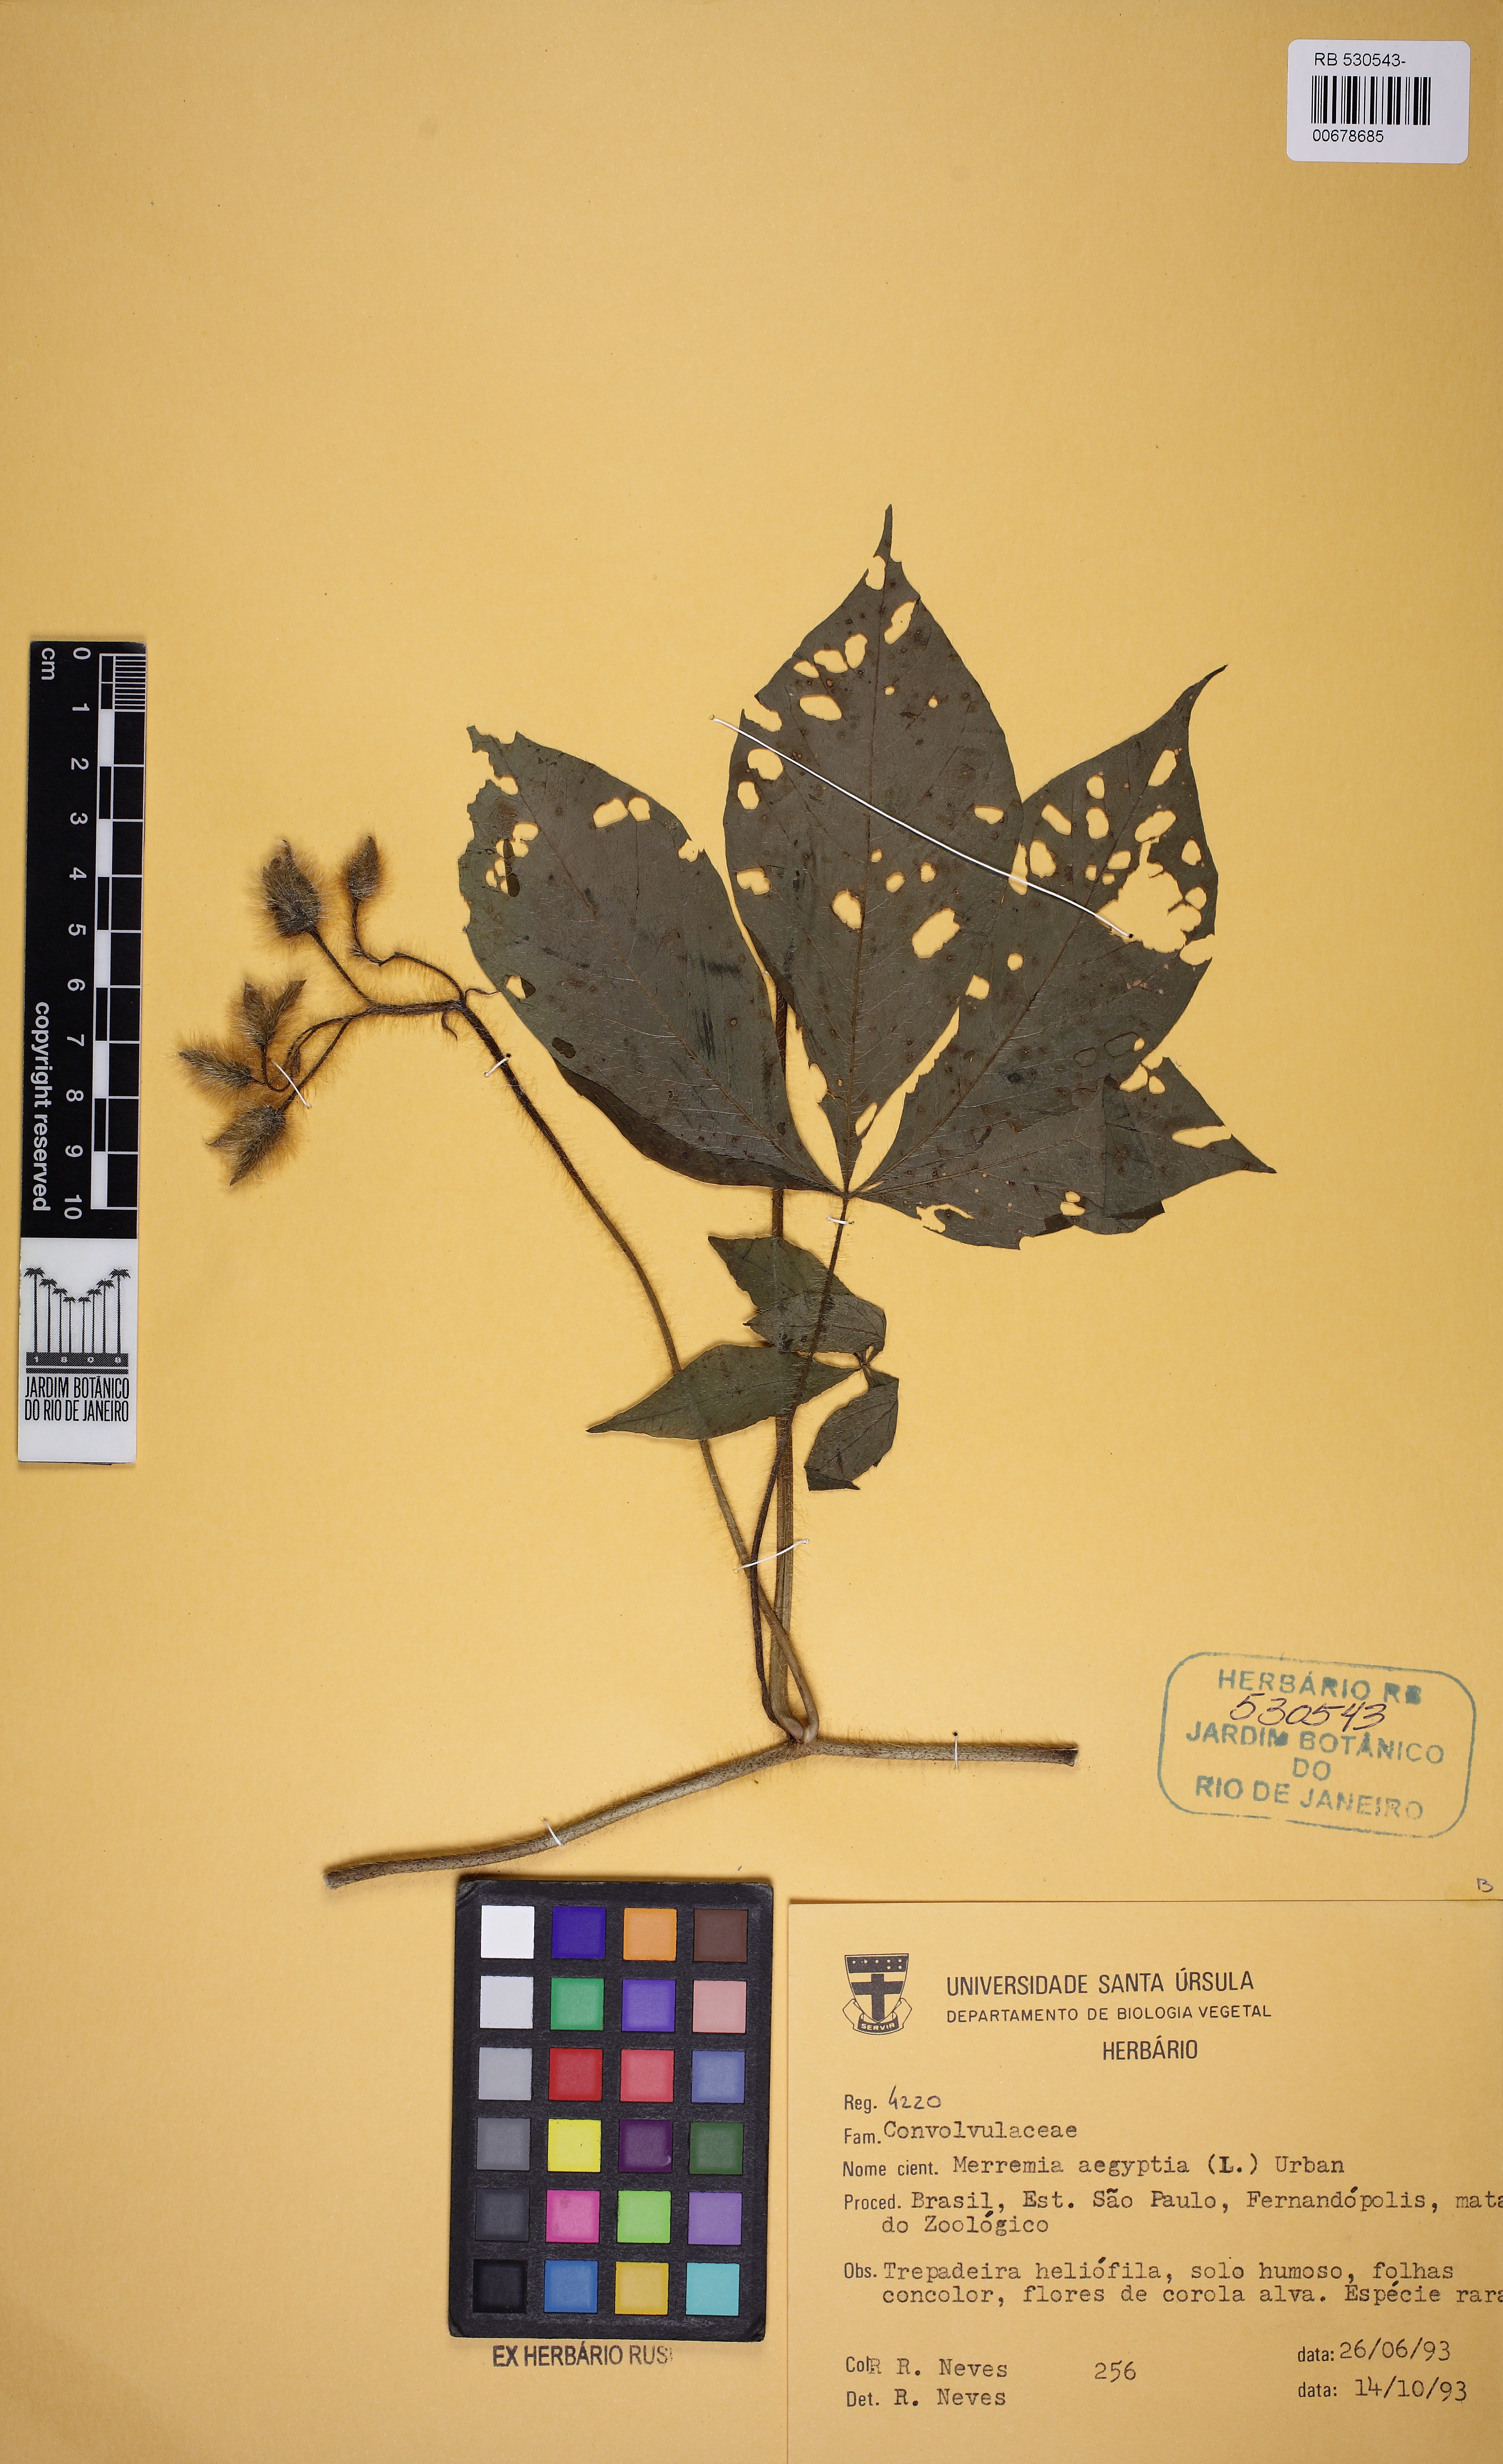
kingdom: Plantae
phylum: Tracheophyta
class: Magnoliopsida
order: Solanales
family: Convolvulaceae
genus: Distimake
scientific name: Distimake aegyptius
